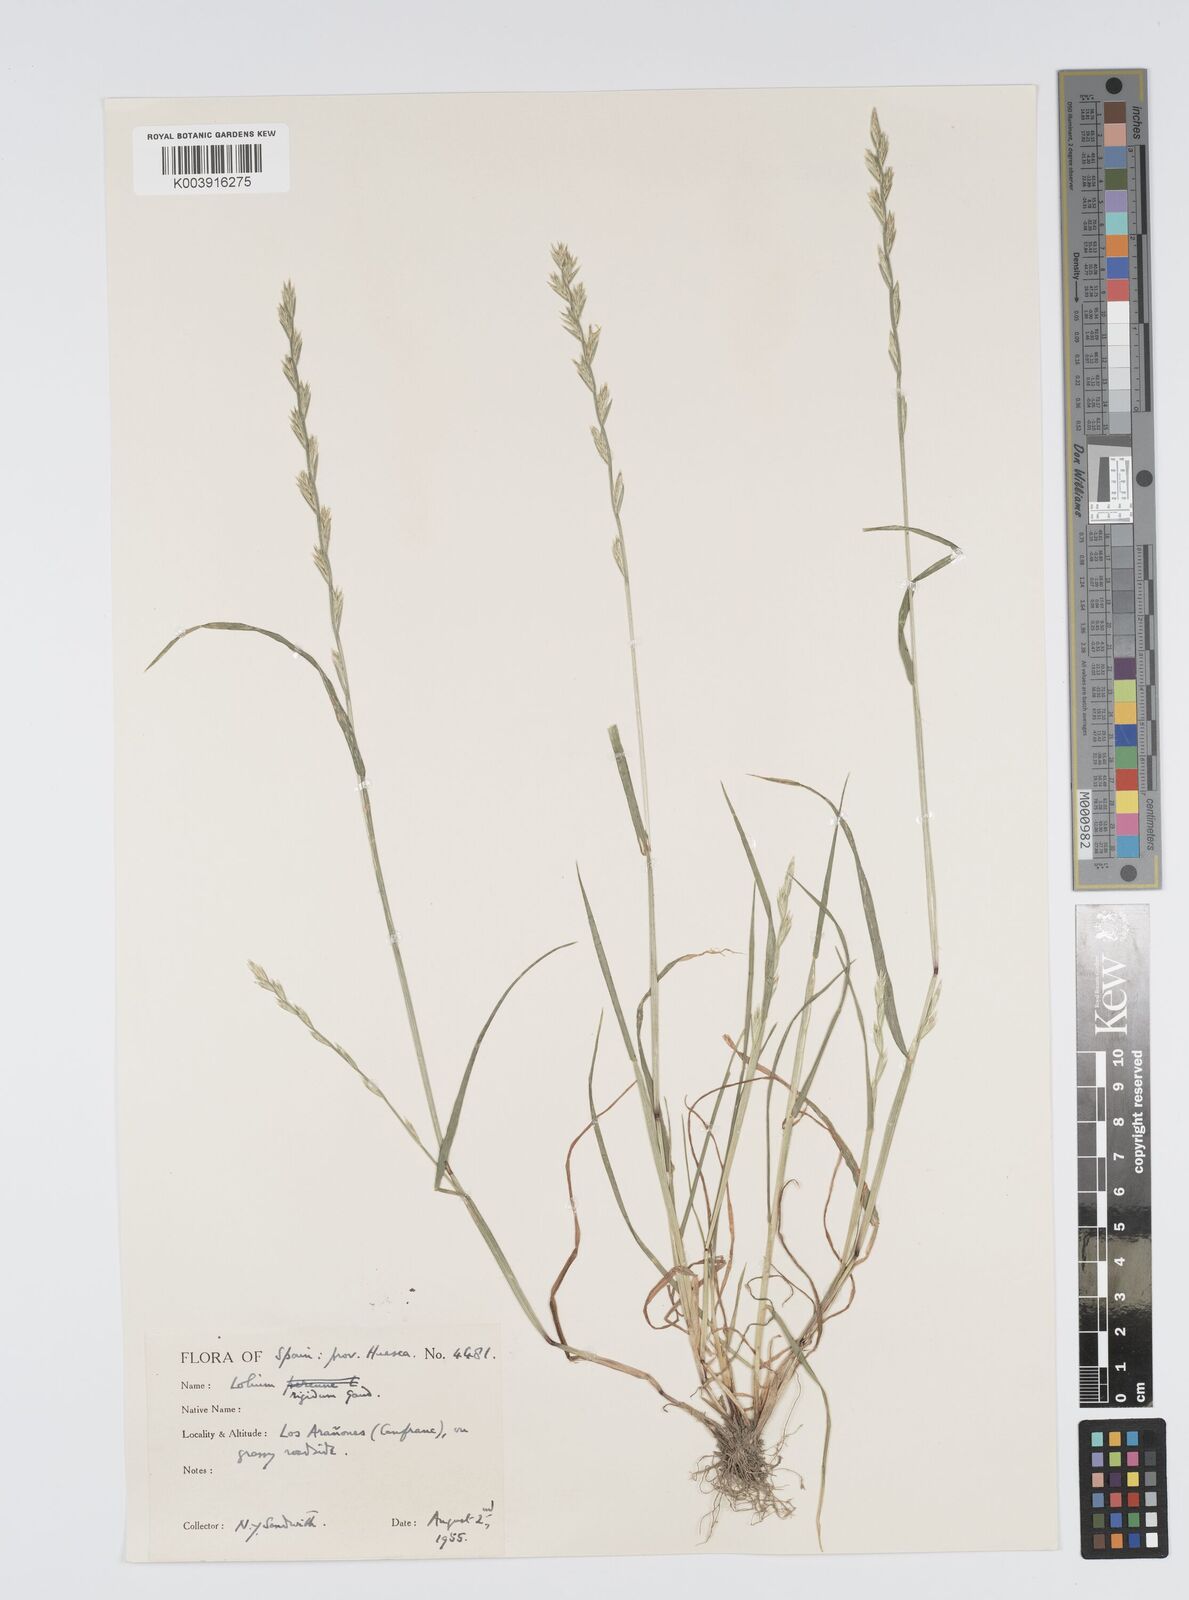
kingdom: Plantae
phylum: Tracheophyta
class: Liliopsida
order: Poales
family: Poaceae
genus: Lolium
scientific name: Lolium rigidum
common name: Wimmera ryegrass
